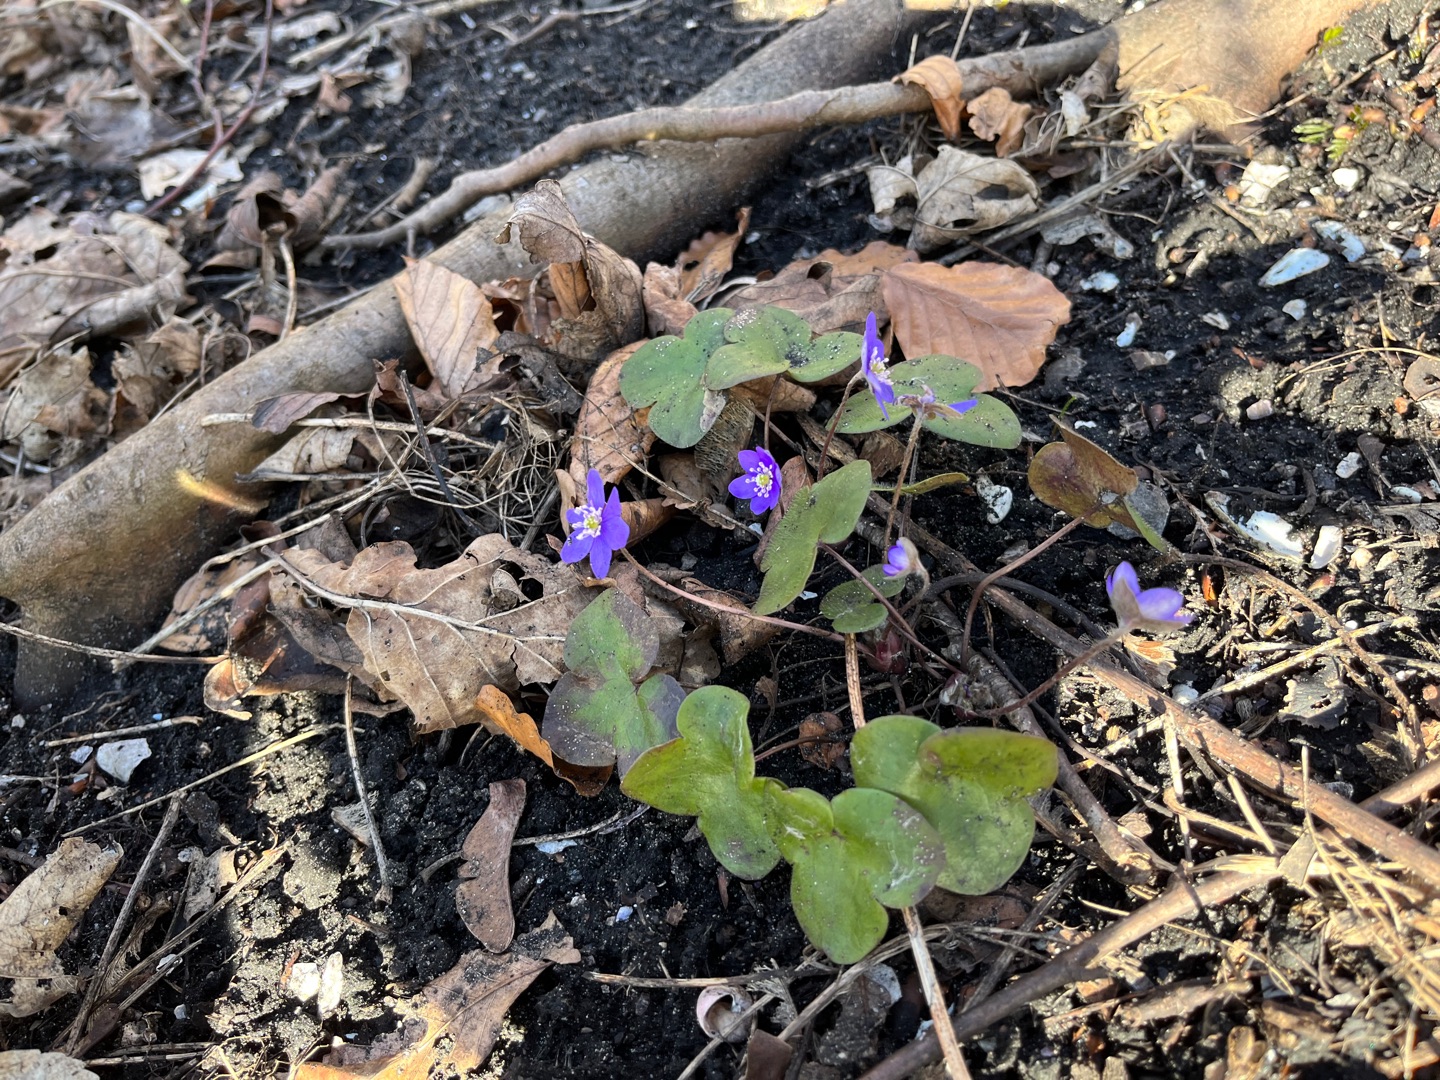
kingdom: Plantae
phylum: Tracheophyta
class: Magnoliopsida
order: Ranunculales
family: Ranunculaceae
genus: Hepatica
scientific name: Hepatica nobilis
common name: Blå anemone
